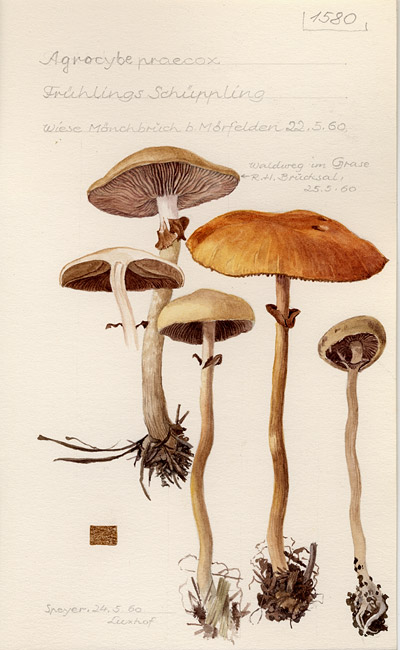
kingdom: Fungi
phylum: Basidiomycota
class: Agaricomycetes
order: Agaricales
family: Strophariaceae
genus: Agrocybe
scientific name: Agrocybe praecox
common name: Spring fieldcap
